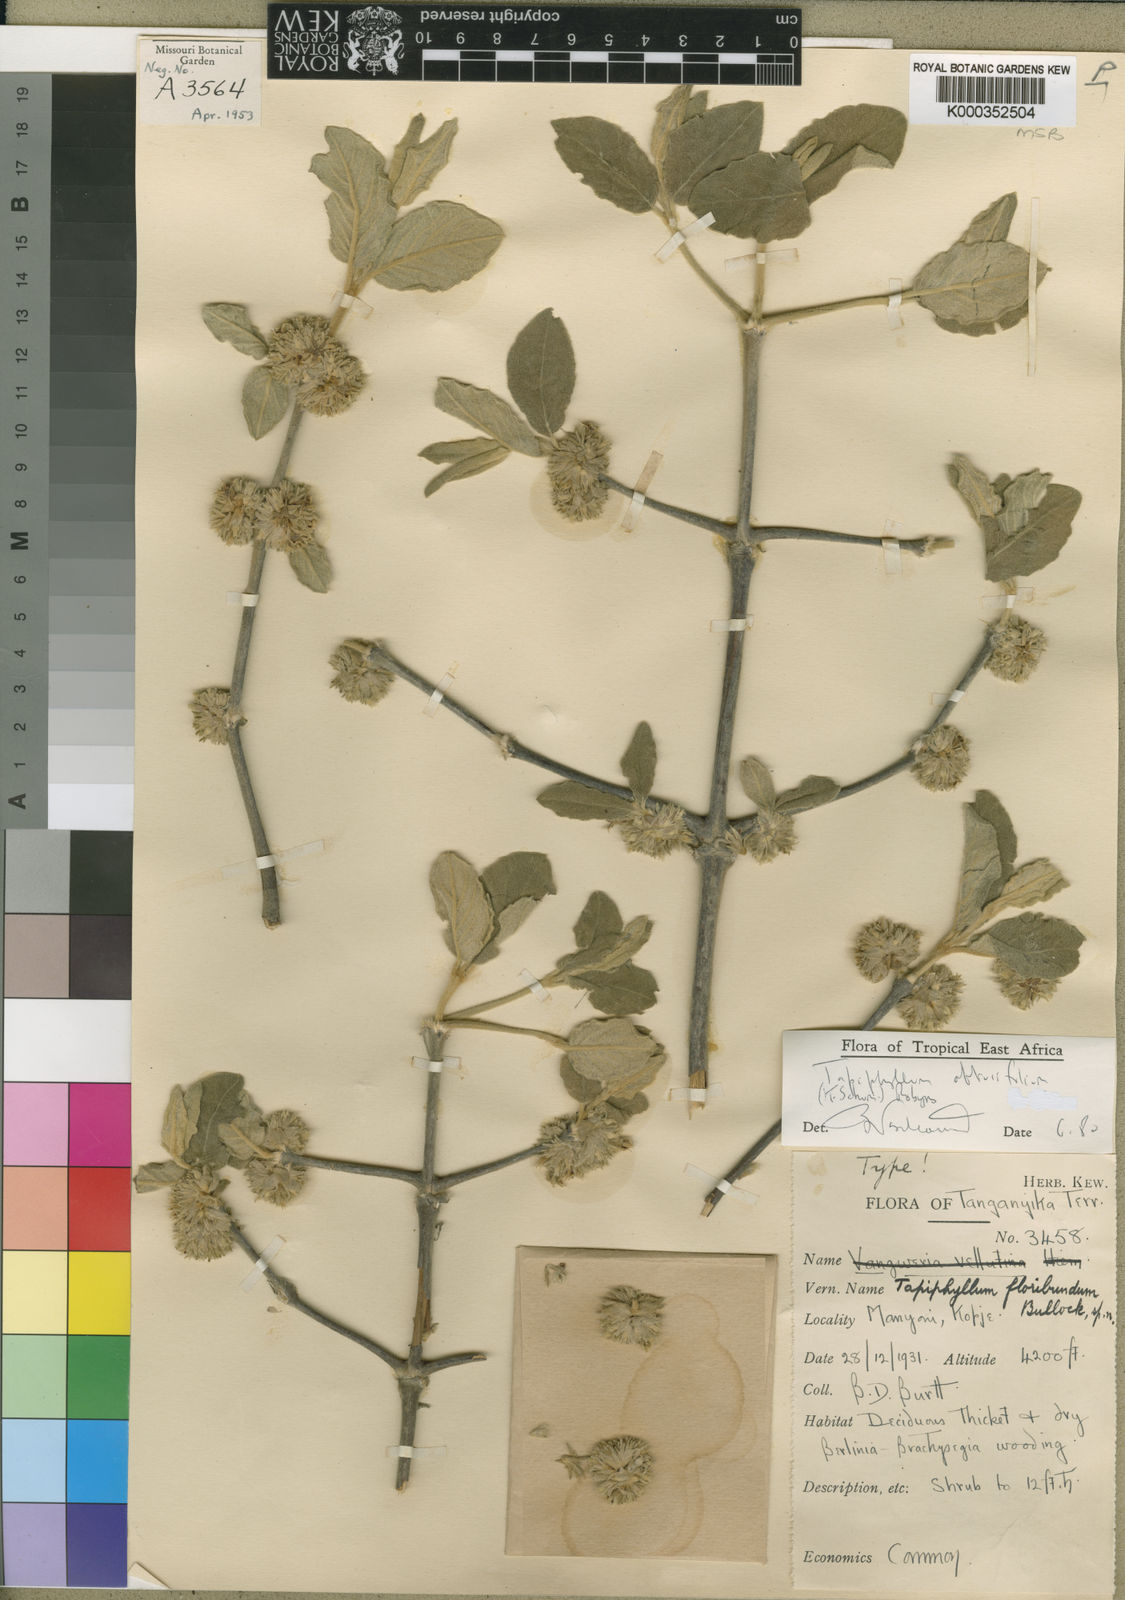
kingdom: Plantae
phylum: Tracheophyta
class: Magnoliopsida
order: Gentianales
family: Rubiaceae
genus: Vangueria
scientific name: Vangueria
